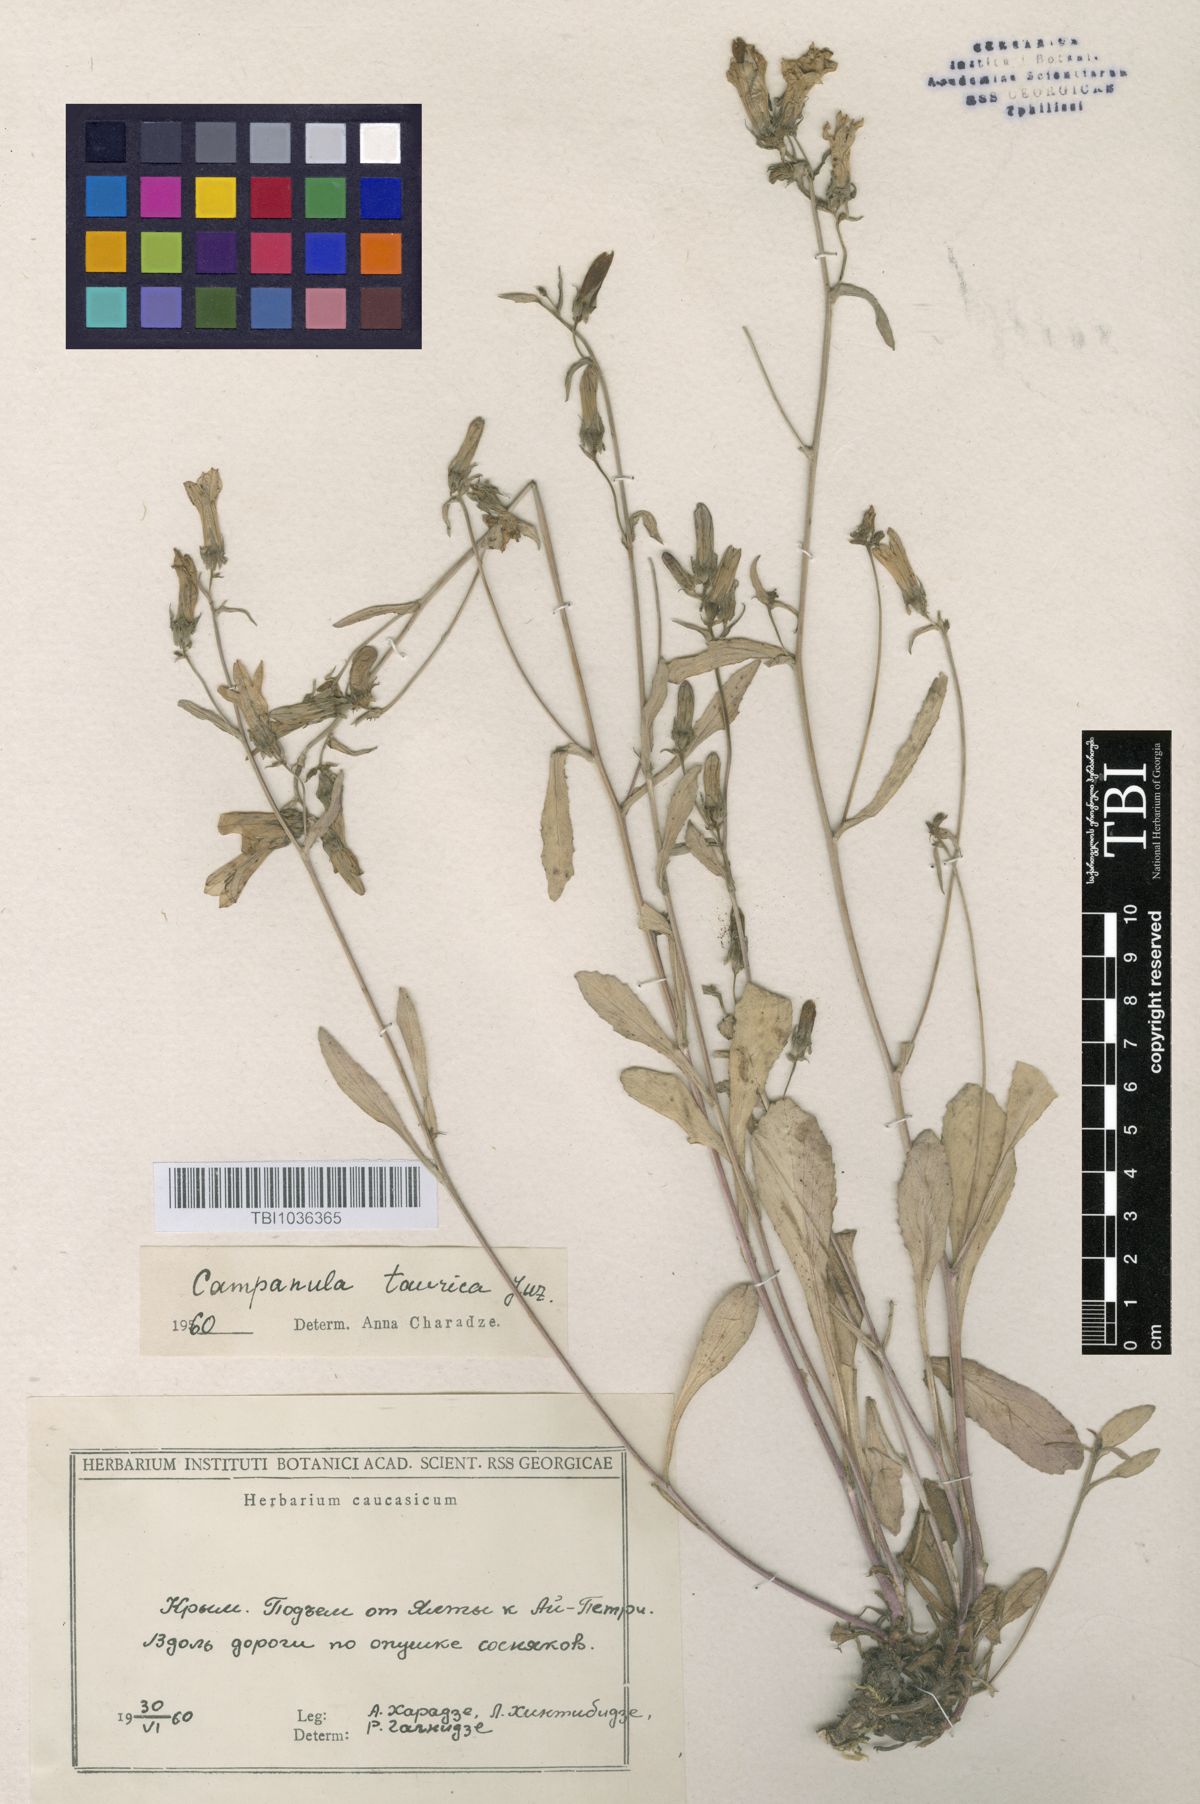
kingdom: Plantae
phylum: Tracheophyta
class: Magnoliopsida
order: Asterales
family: Campanulaceae
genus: Campanula
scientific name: Campanula sibirica
